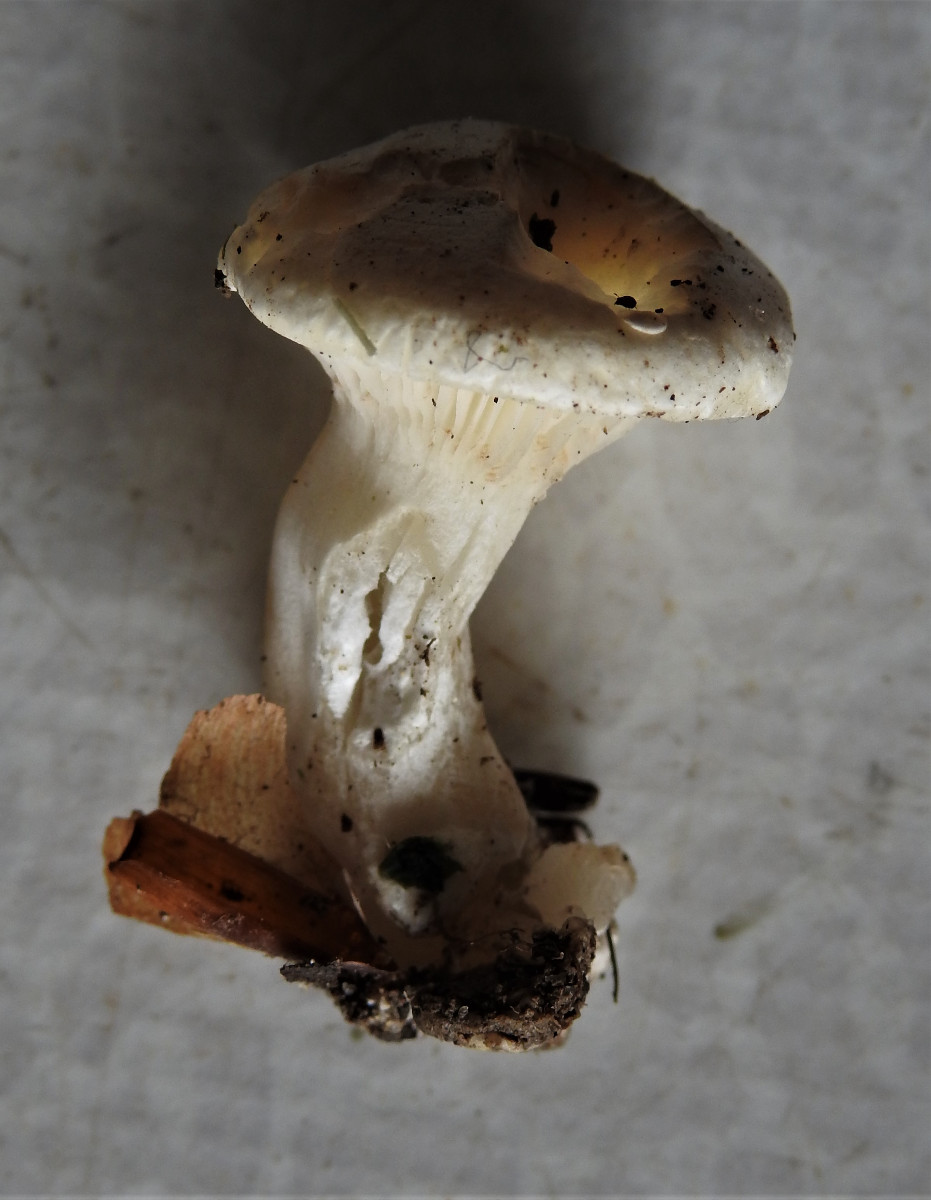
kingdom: Fungi
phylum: Basidiomycota
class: Agaricomycetes
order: Agaricales
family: Entolomataceae
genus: Clitopilus
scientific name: Clitopilus prunulus
